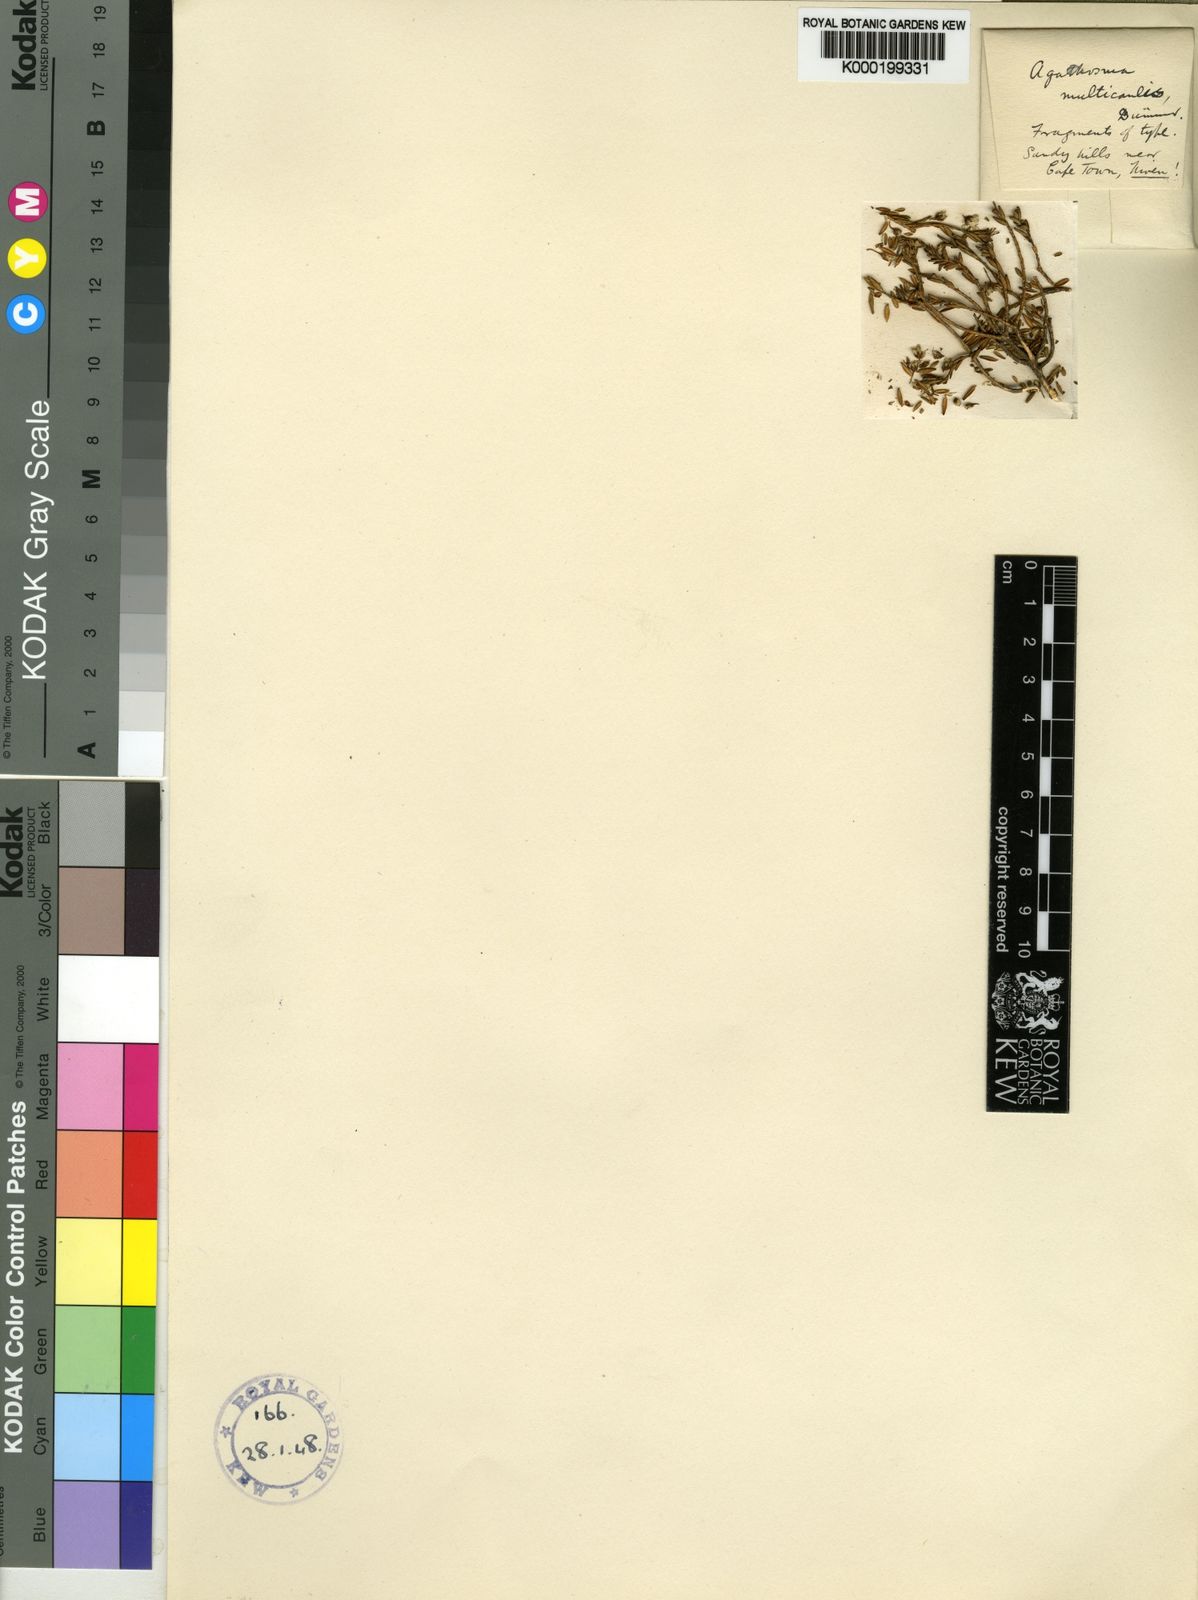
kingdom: Plantae
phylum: Tracheophyta
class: Magnoliopsida
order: Sapindales
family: Rutaceae
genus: Agathosma
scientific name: Agathosma glabrata
